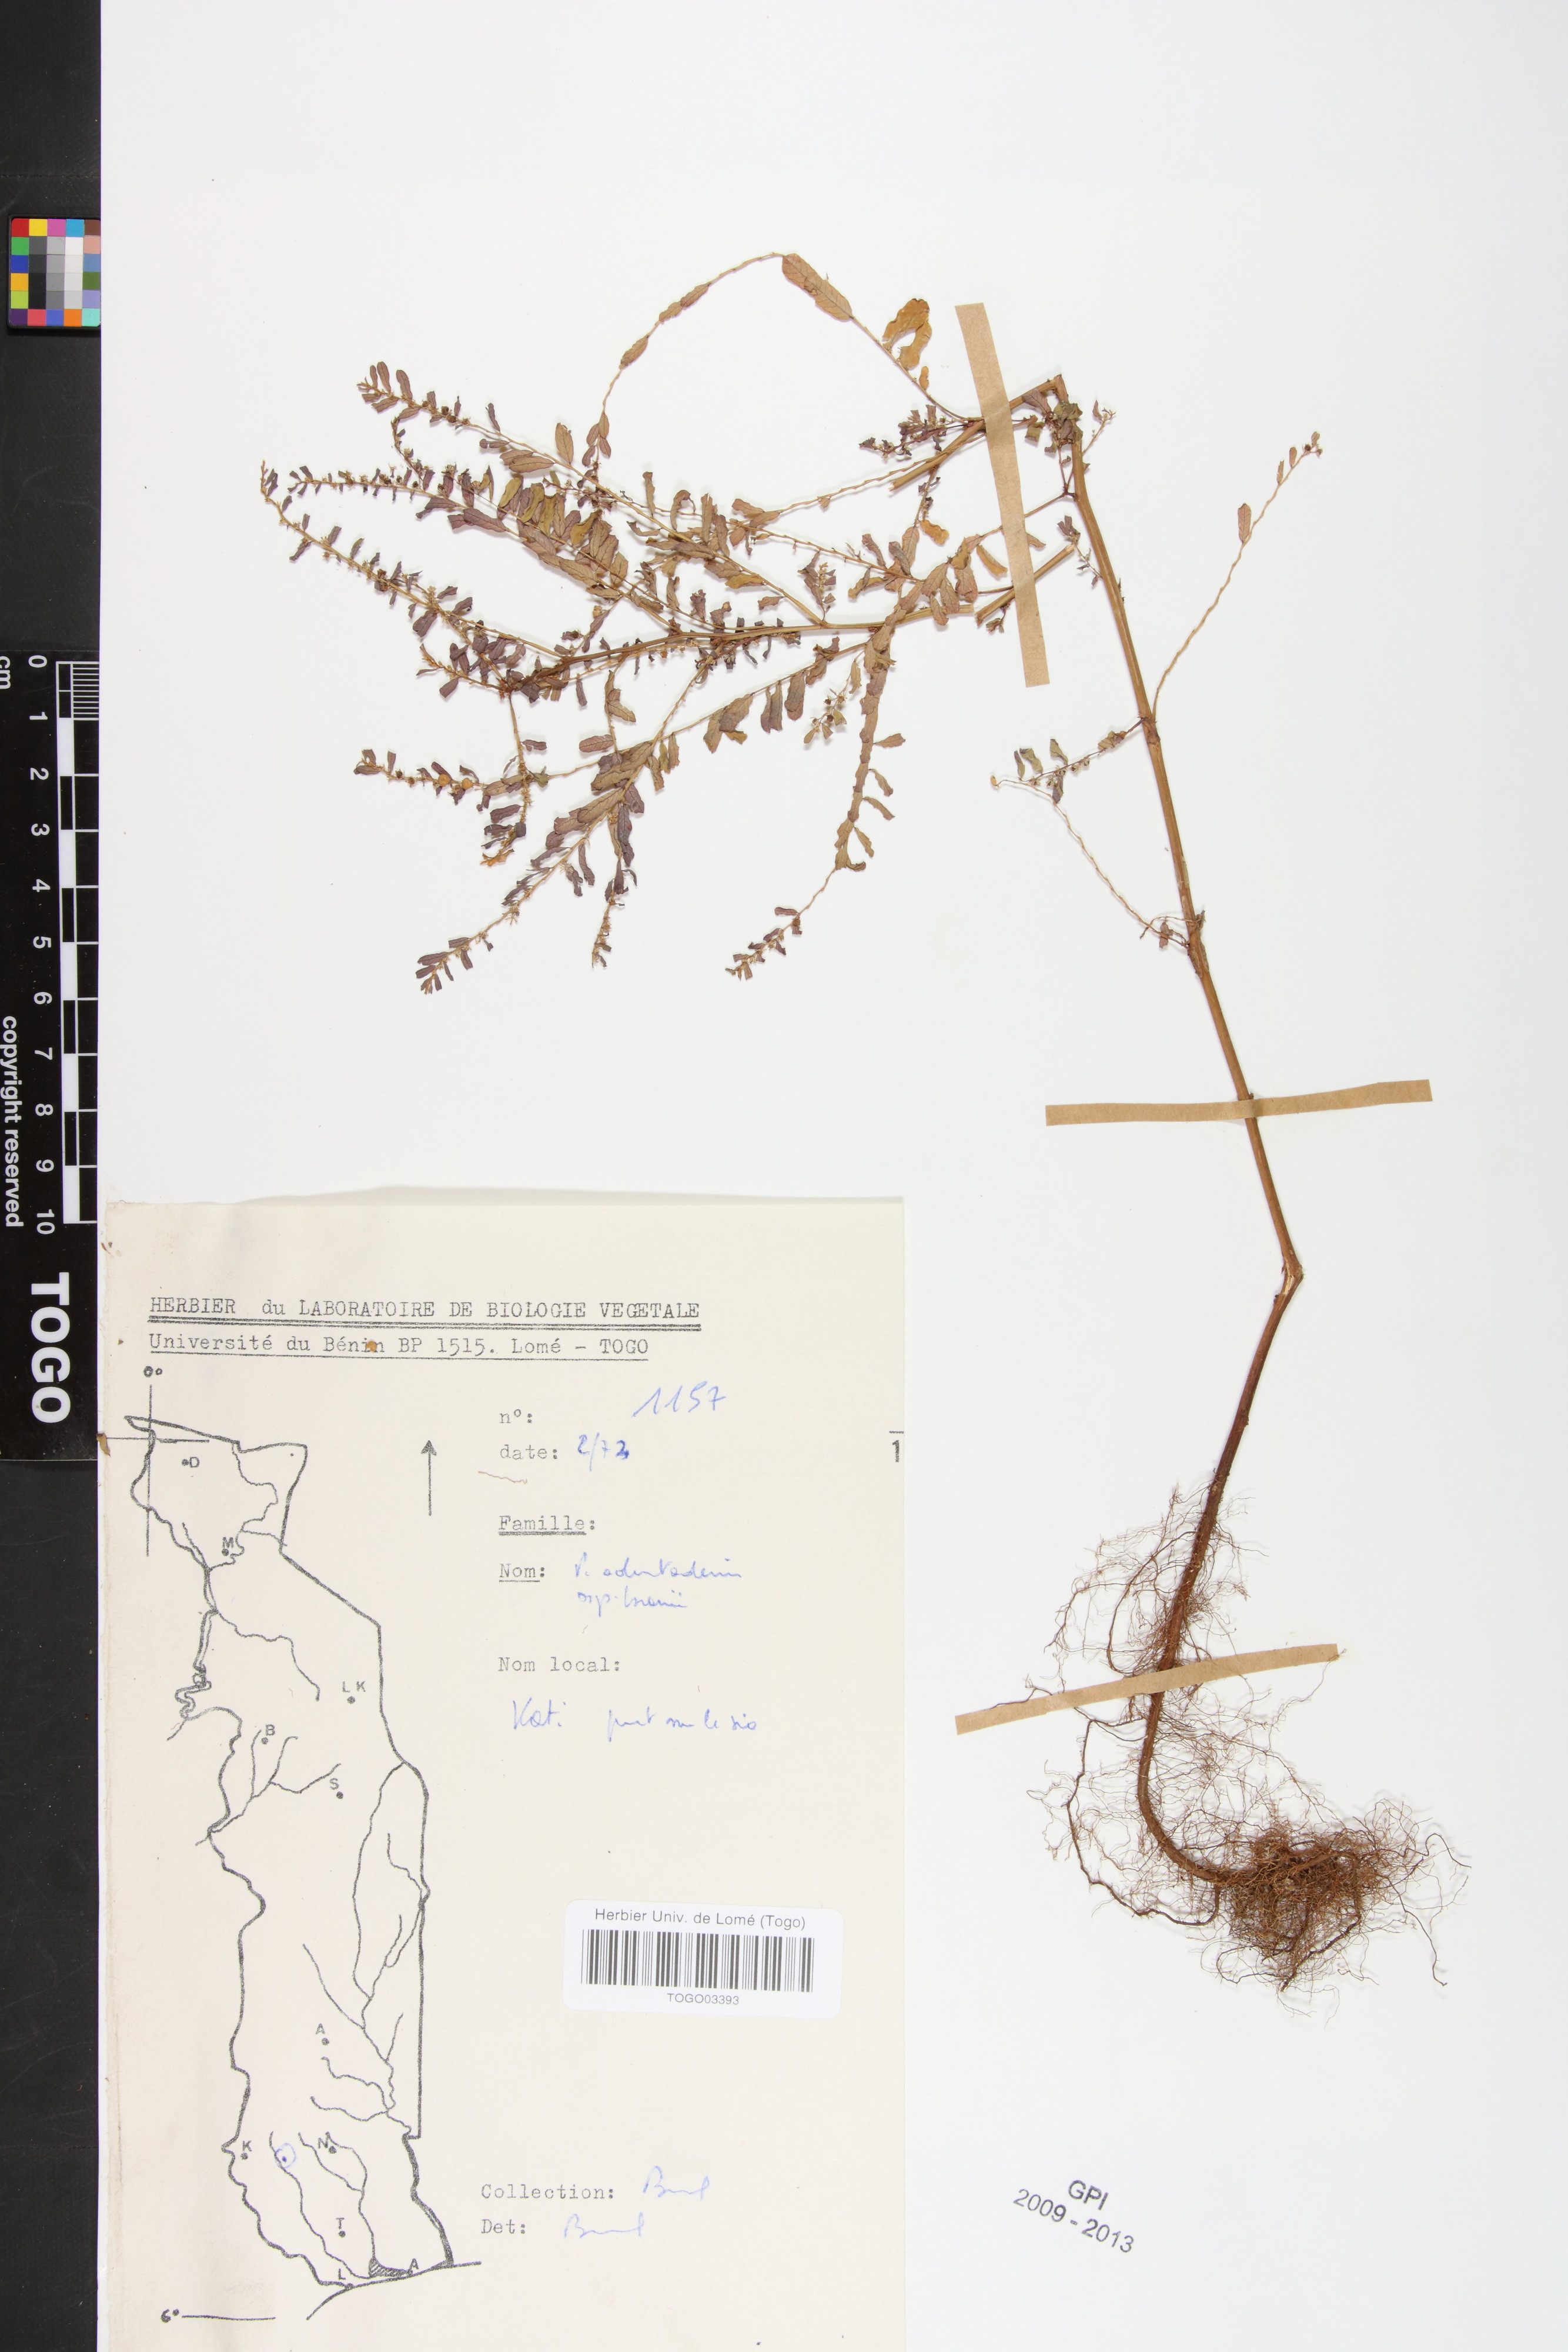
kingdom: Plantae
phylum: Tracheophyta
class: Magnoliopsida
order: Malpighiales
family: Phyllanthaceae
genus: Phyllanthus
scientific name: Phyllanthus odontadenius
